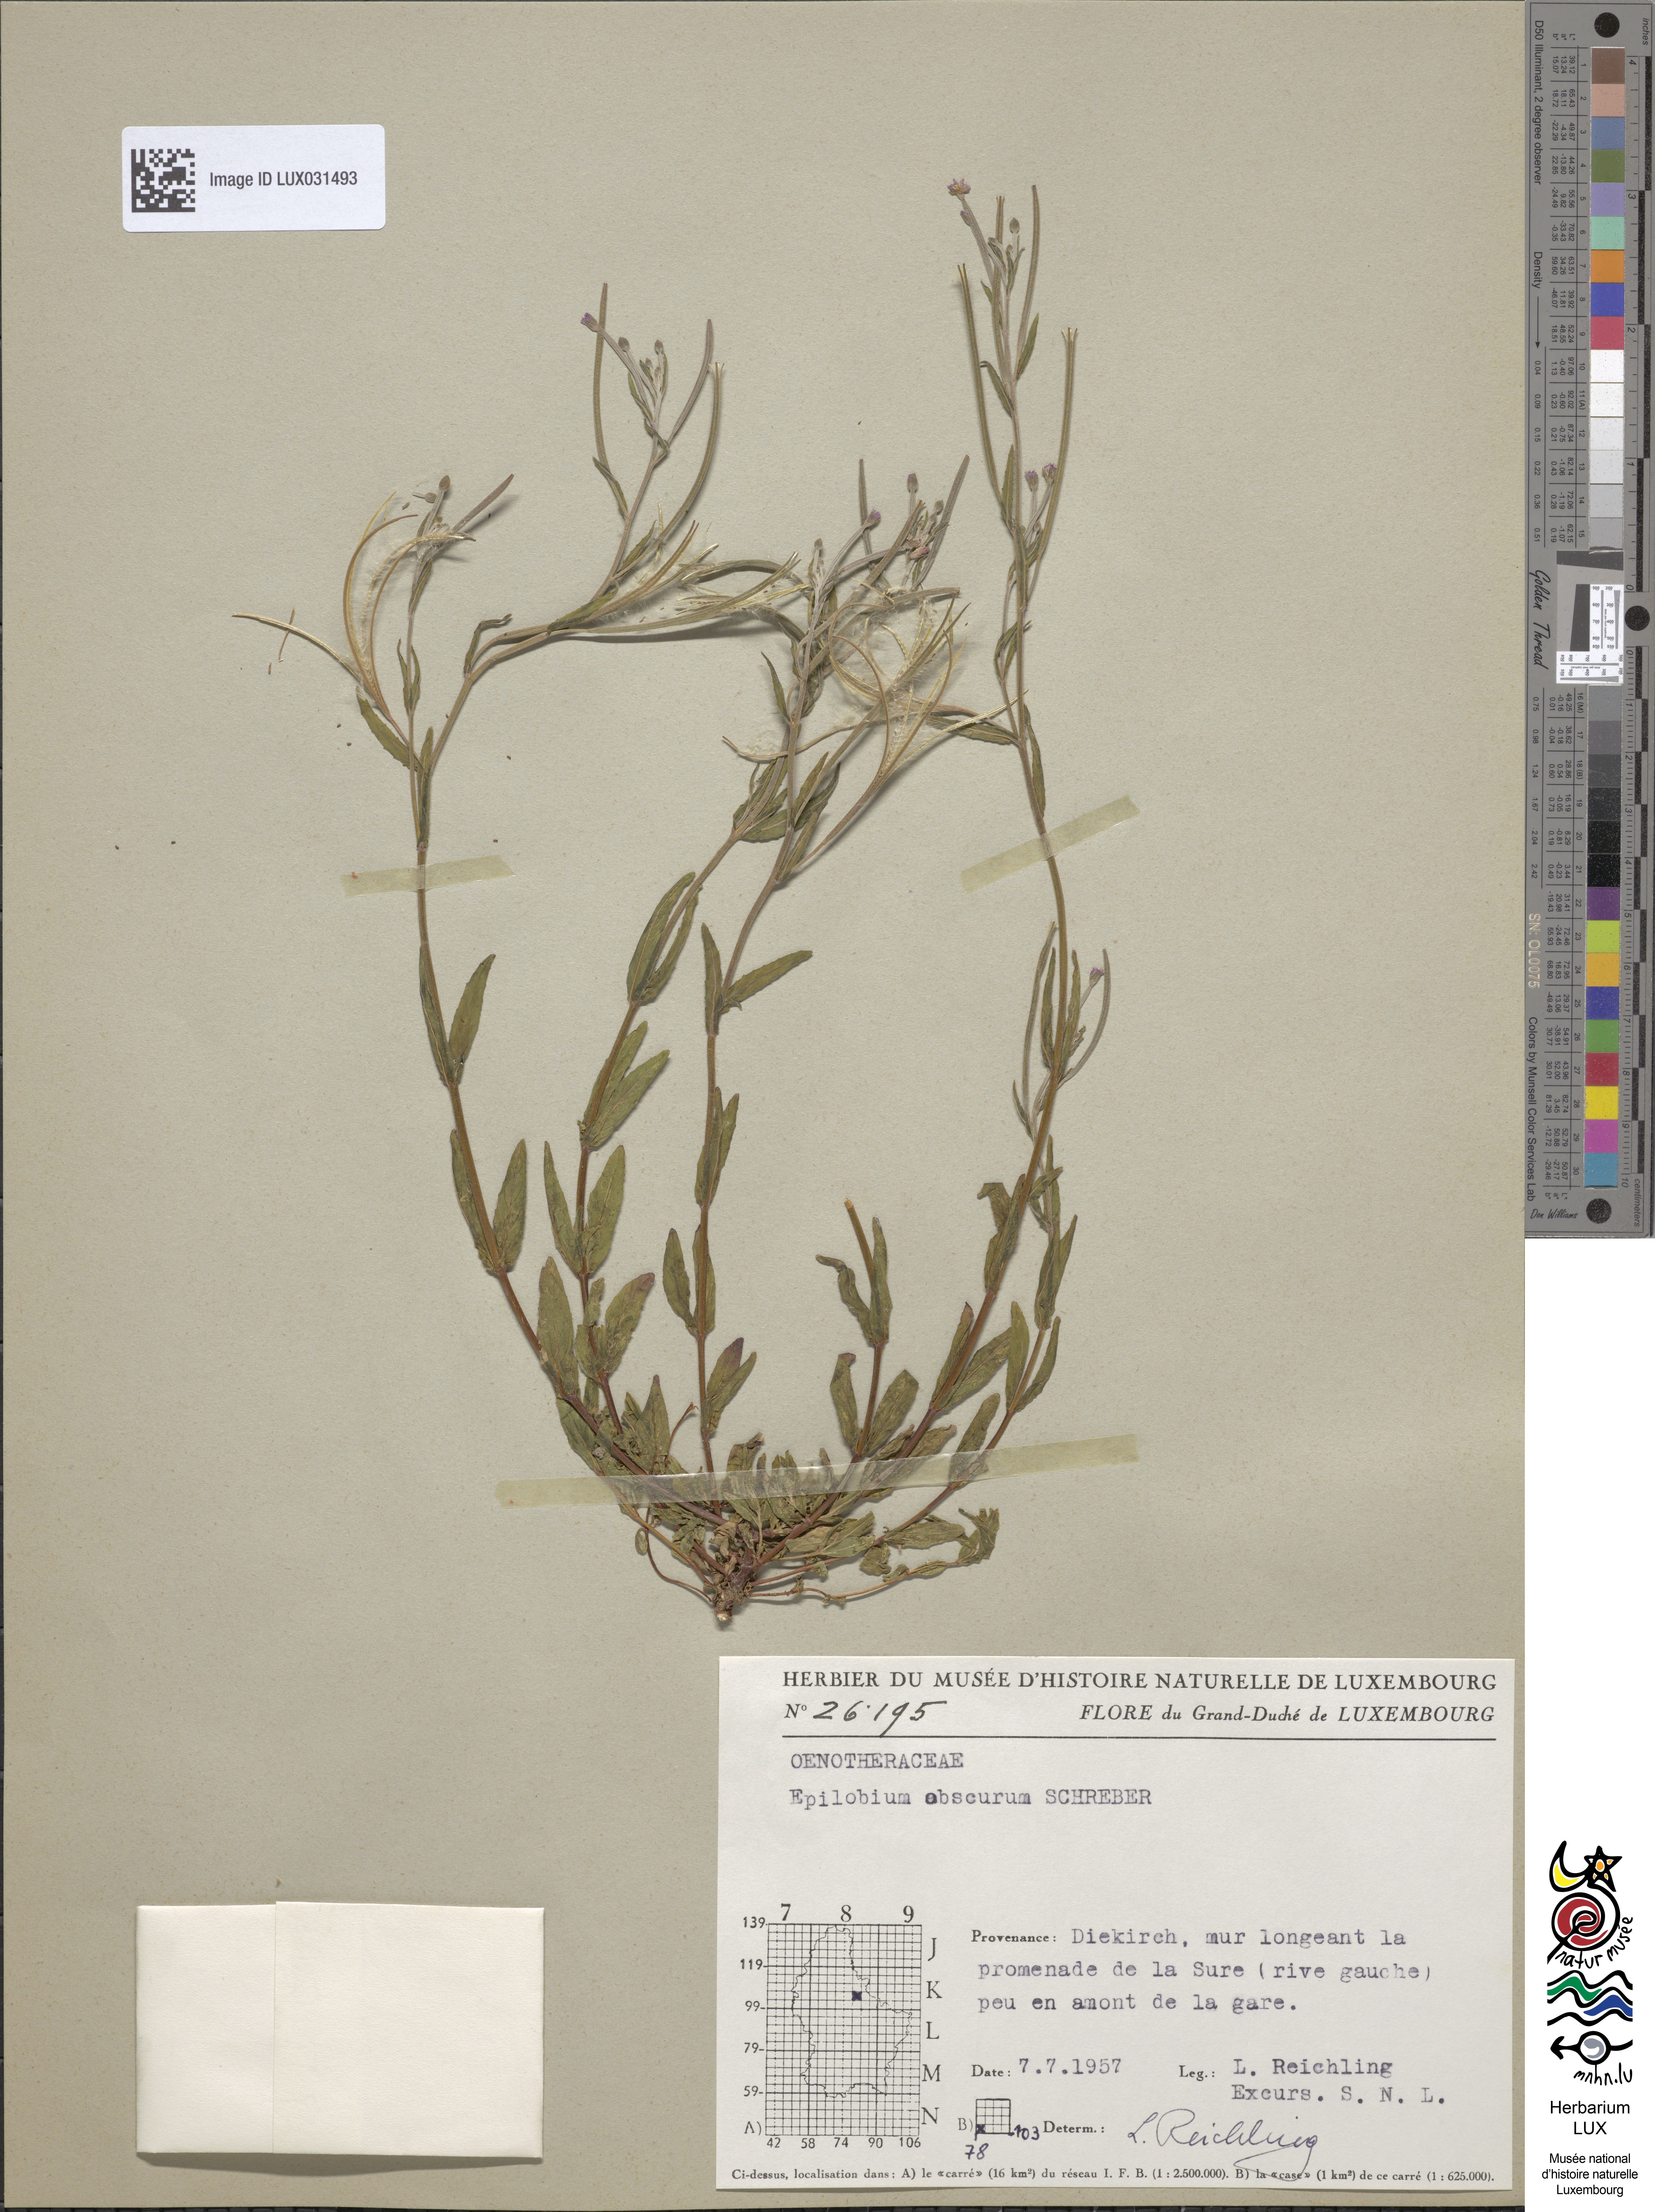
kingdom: Plantae
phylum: Tracheophyta
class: Magnoliopsida
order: Myrtales
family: Onagraceae
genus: Epilobium
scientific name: Epilobium obscurum
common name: Short-fruited willowherb
